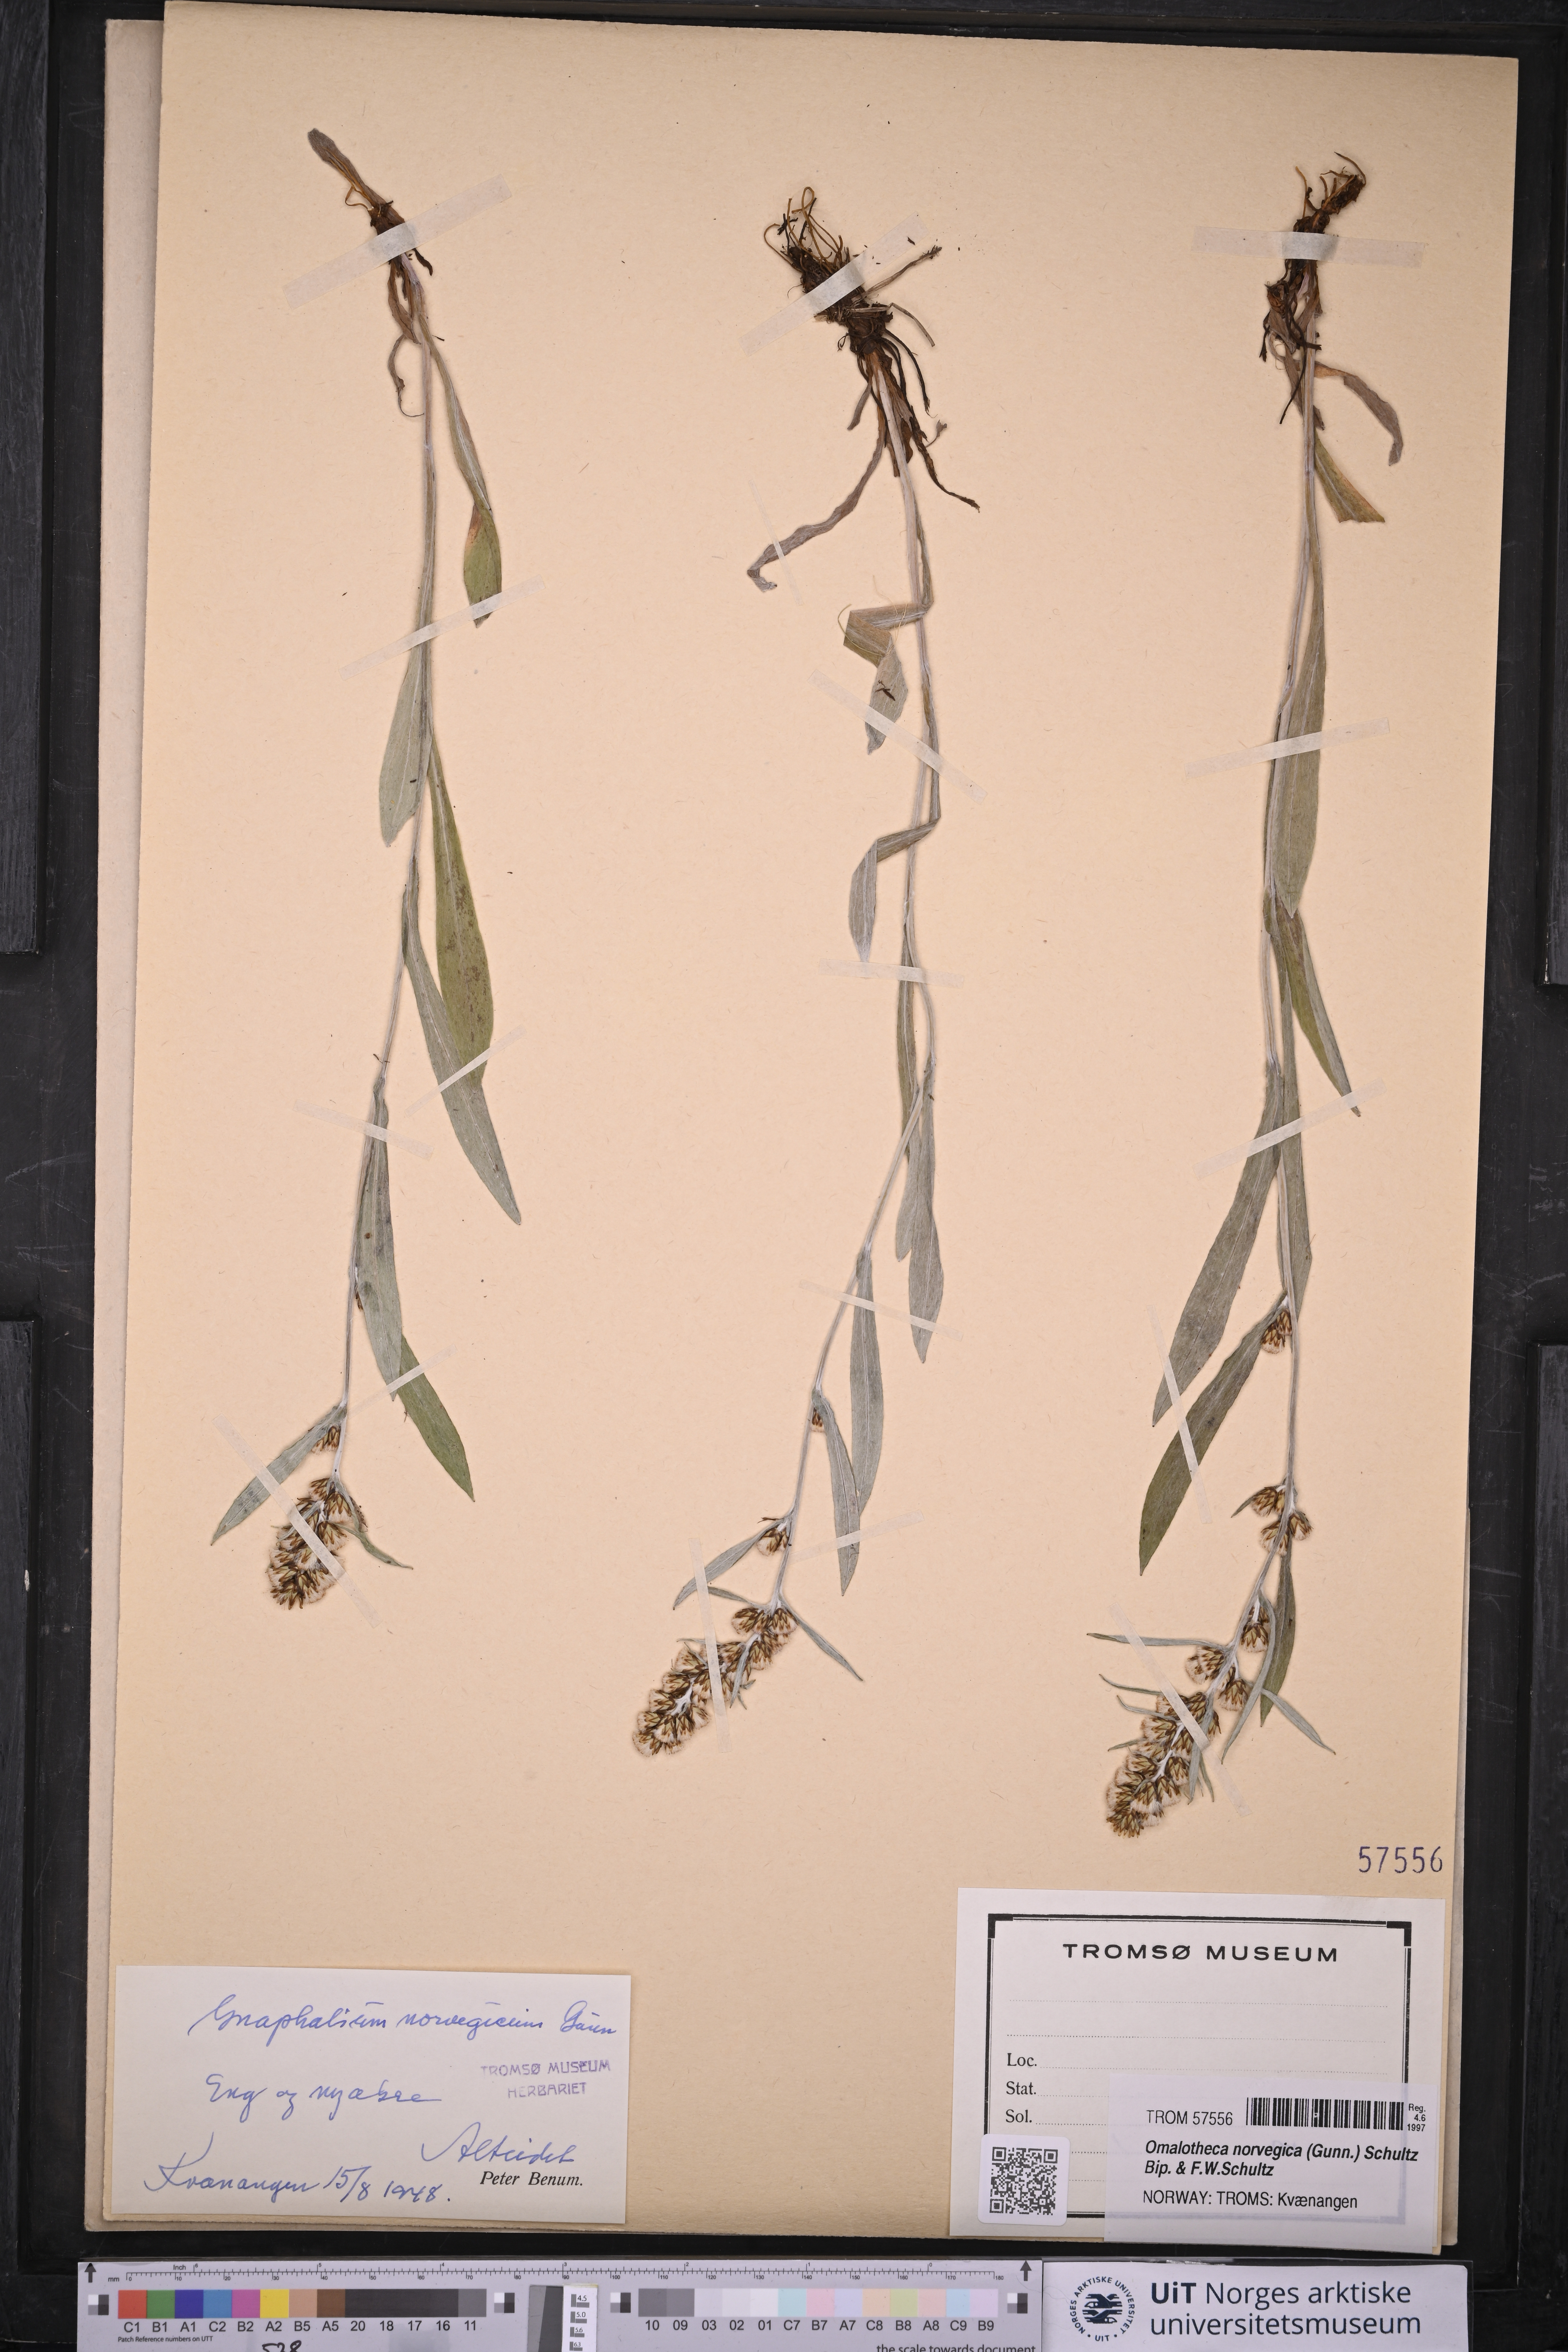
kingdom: Plantae
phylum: Tracheophyta
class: Magnoliopsida
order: Asterales
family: Asteraceae
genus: Omalotheca
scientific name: Omalotheca norvegica
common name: Norwegian arctic-cudweed
